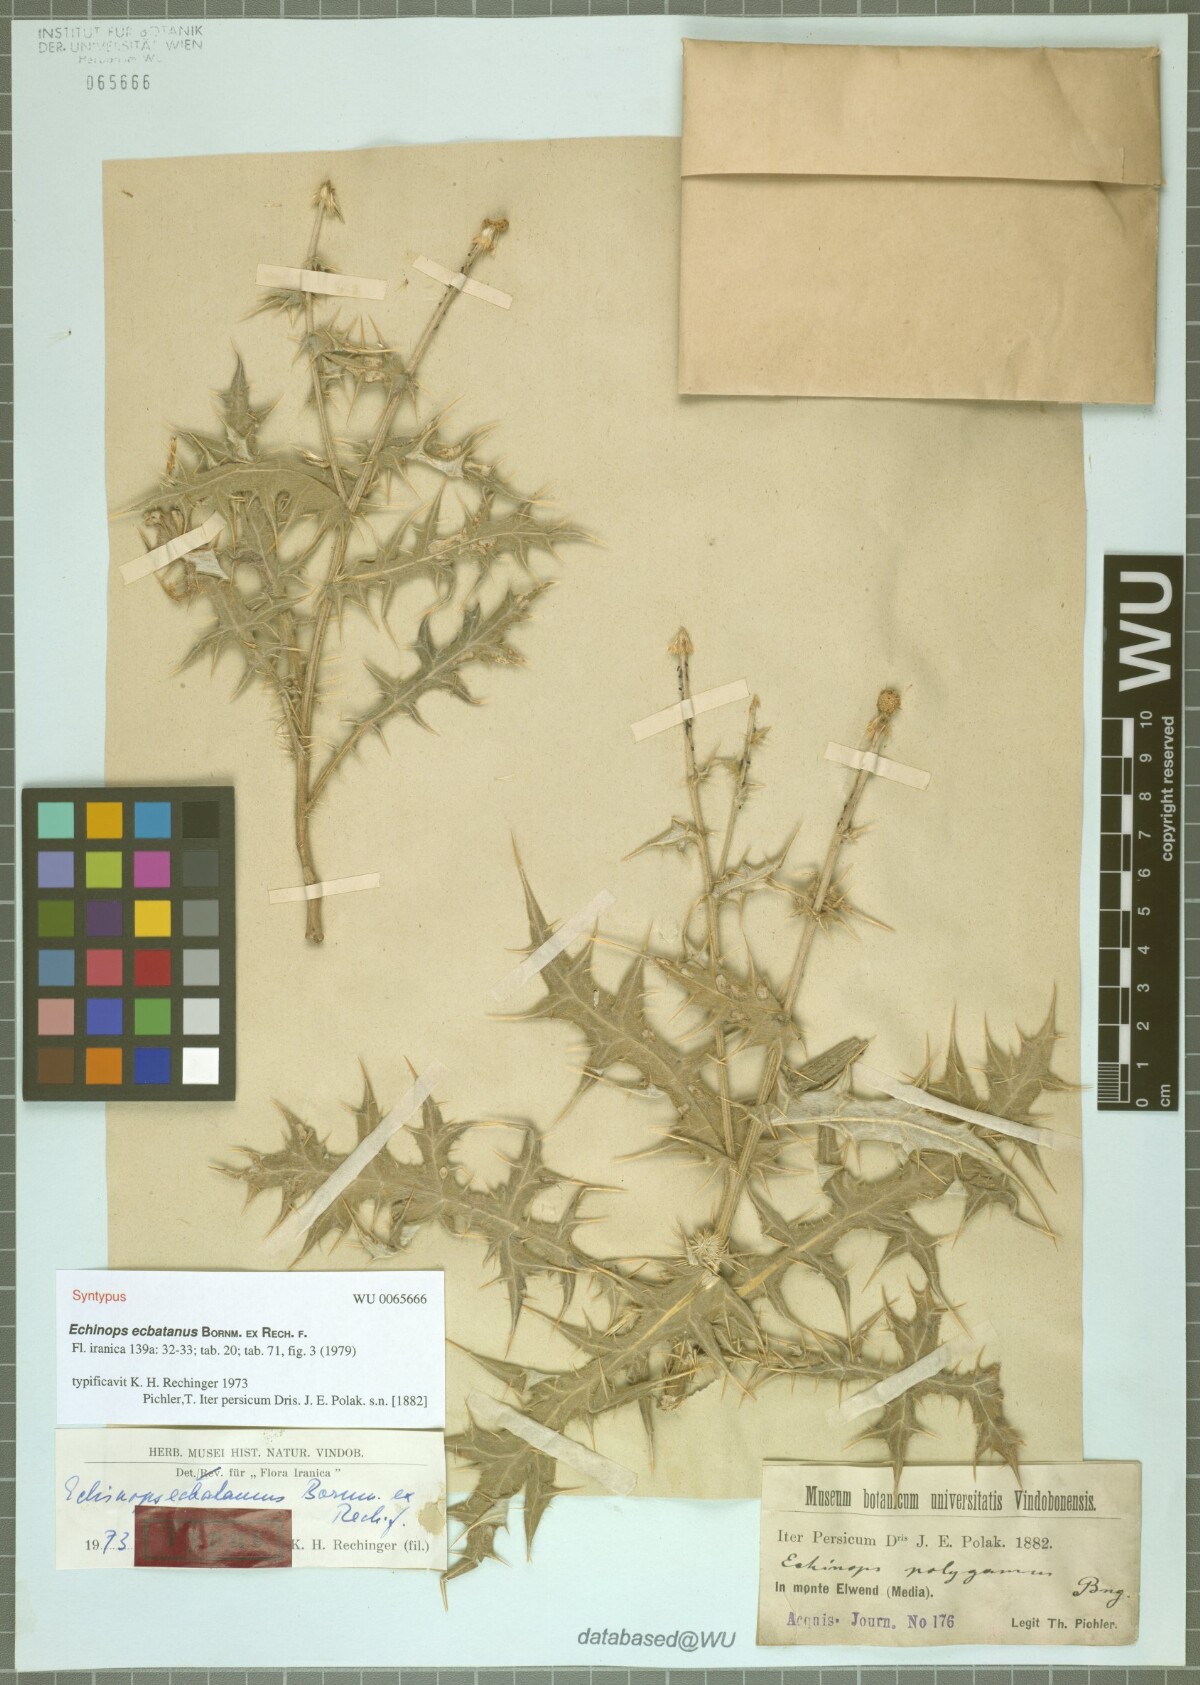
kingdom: Plantae
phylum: Tracheophyta
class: Magnoliopsida
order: Asterales
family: Asteraceae
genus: Echinops
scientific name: Echinops ecbatanus
